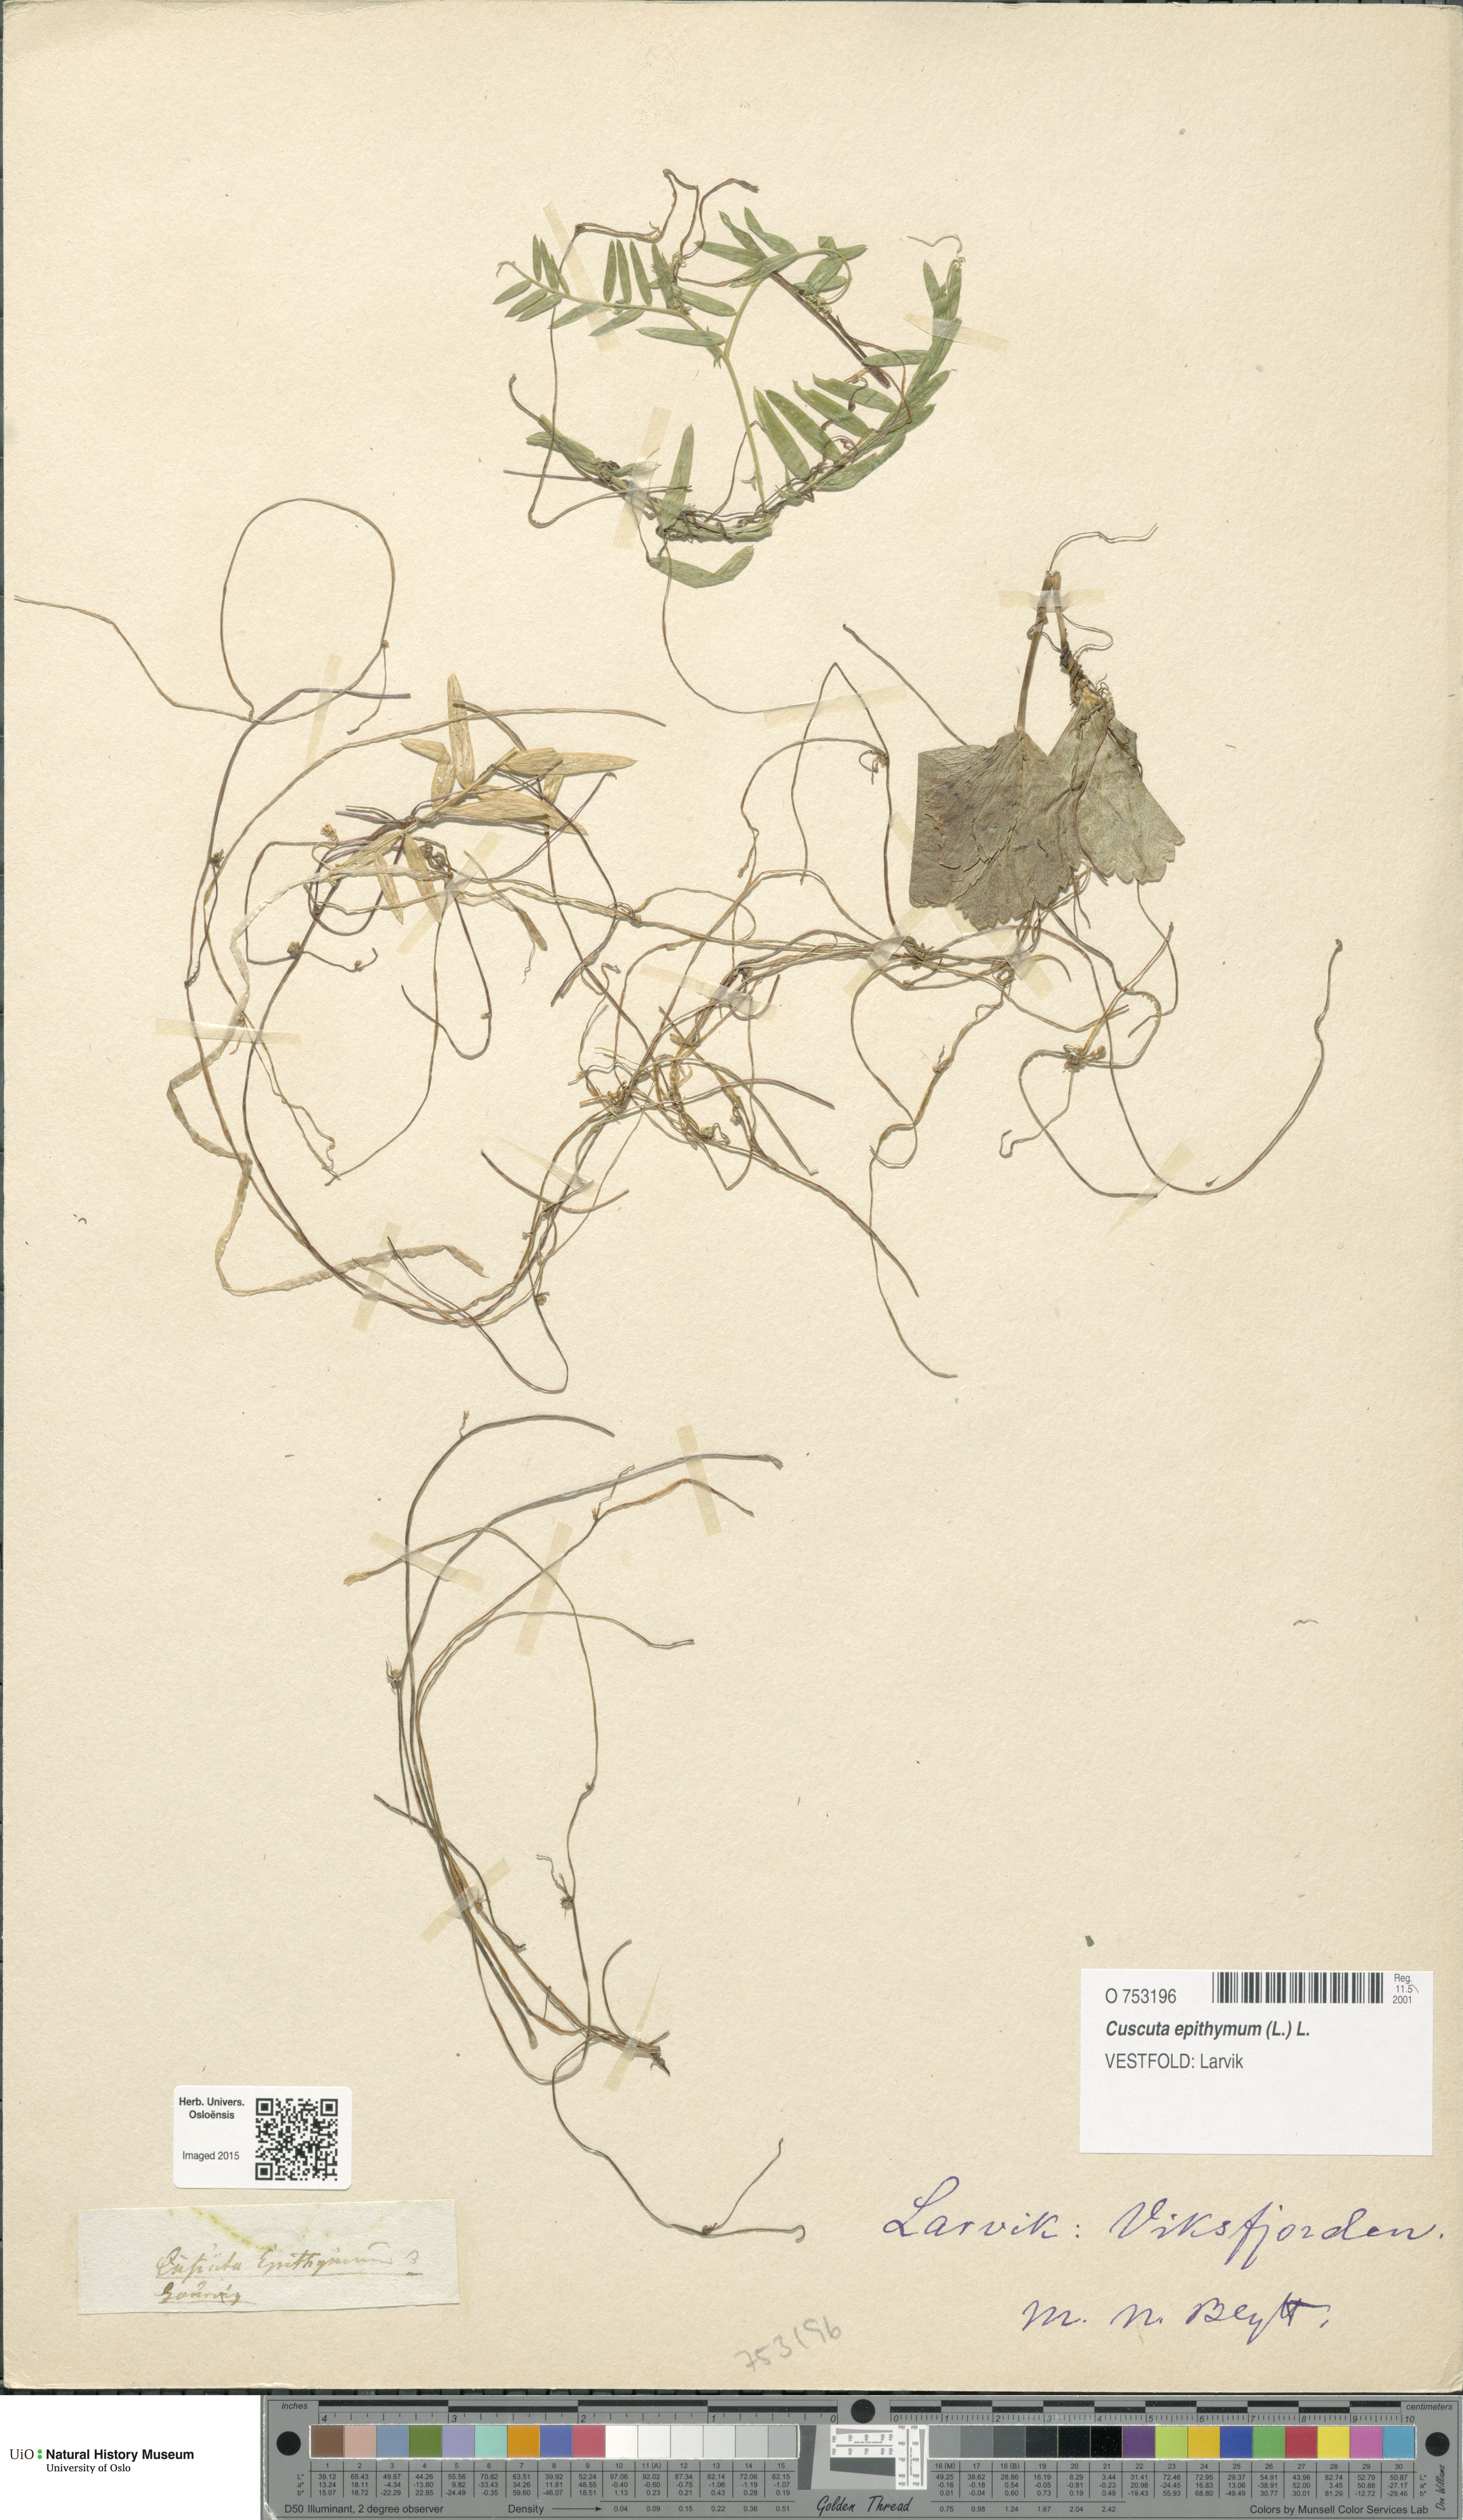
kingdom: Plantae
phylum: Tracheophyta
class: Magnoliopsida
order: Solanales
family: Convolvulaceae
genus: Cuscuta
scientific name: Cuscuta epithymum
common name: Clover dodder
